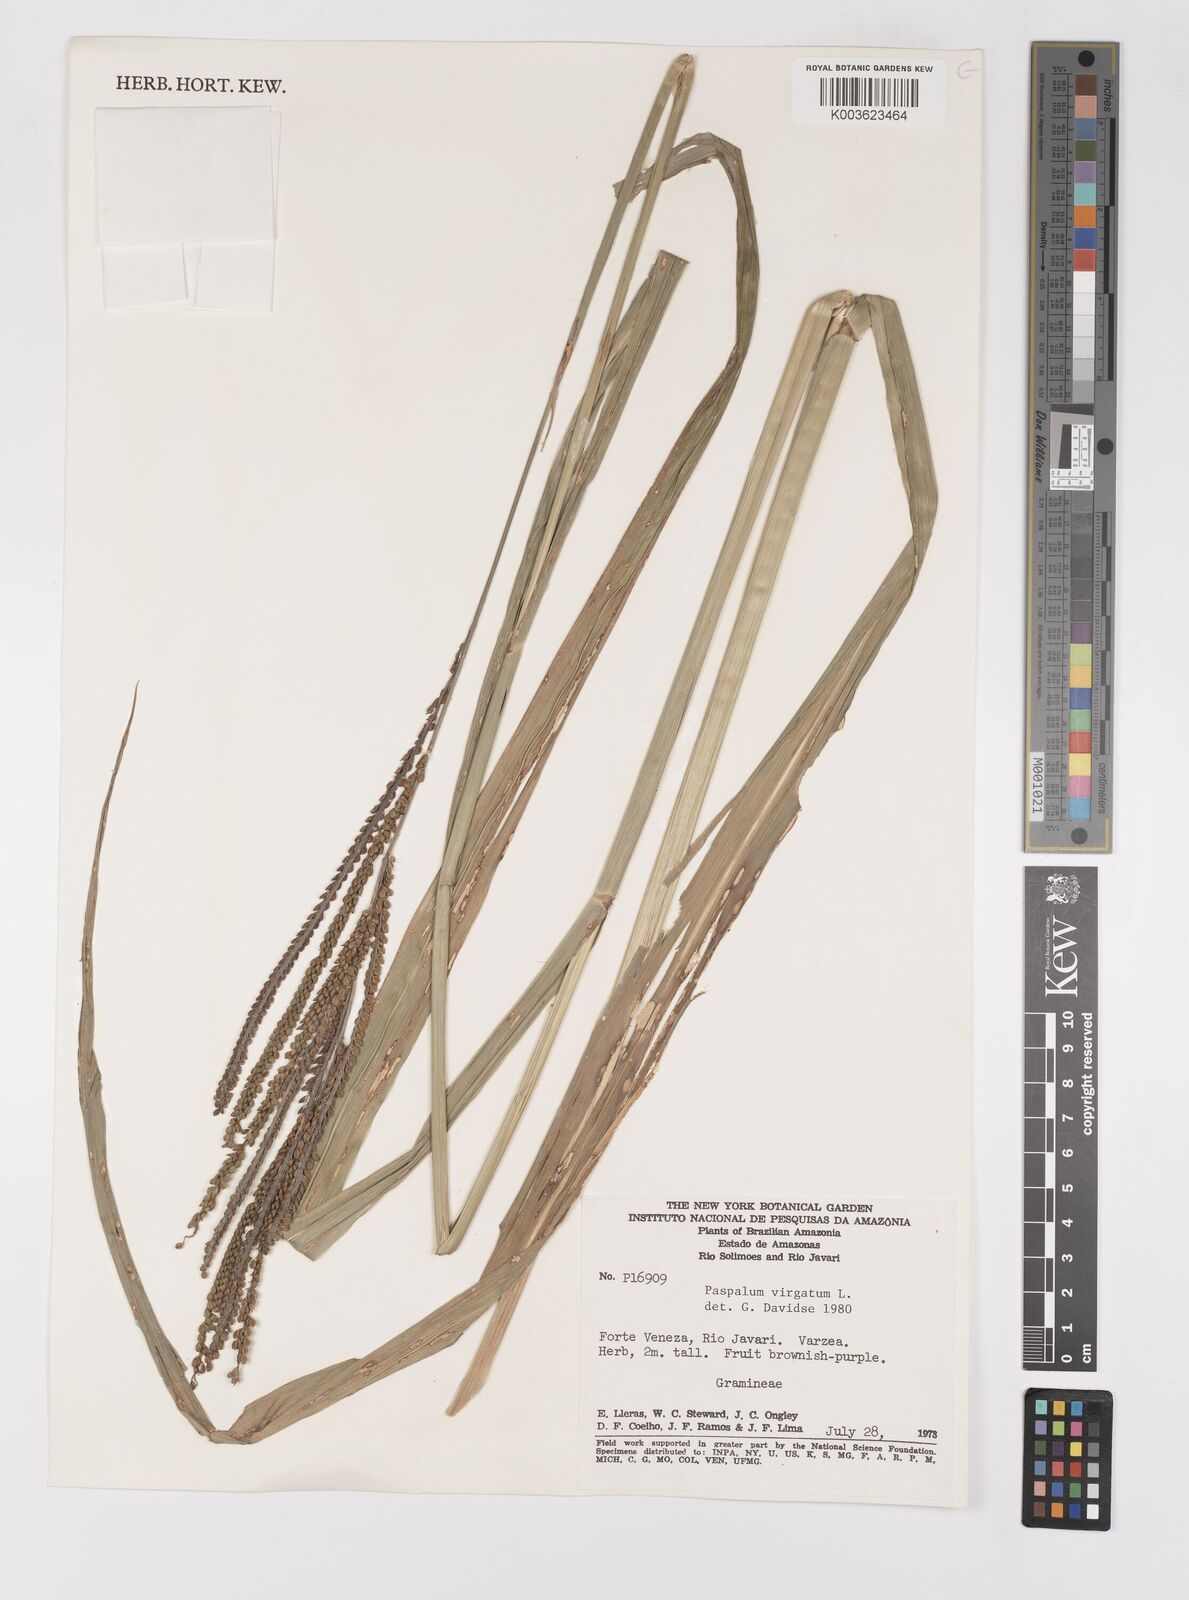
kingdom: Plantae
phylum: Tracheophyta
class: Liliopsida
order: Poales
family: Poaceae
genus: Paspalum
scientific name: Paspalum virgatum
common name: Talquezal
